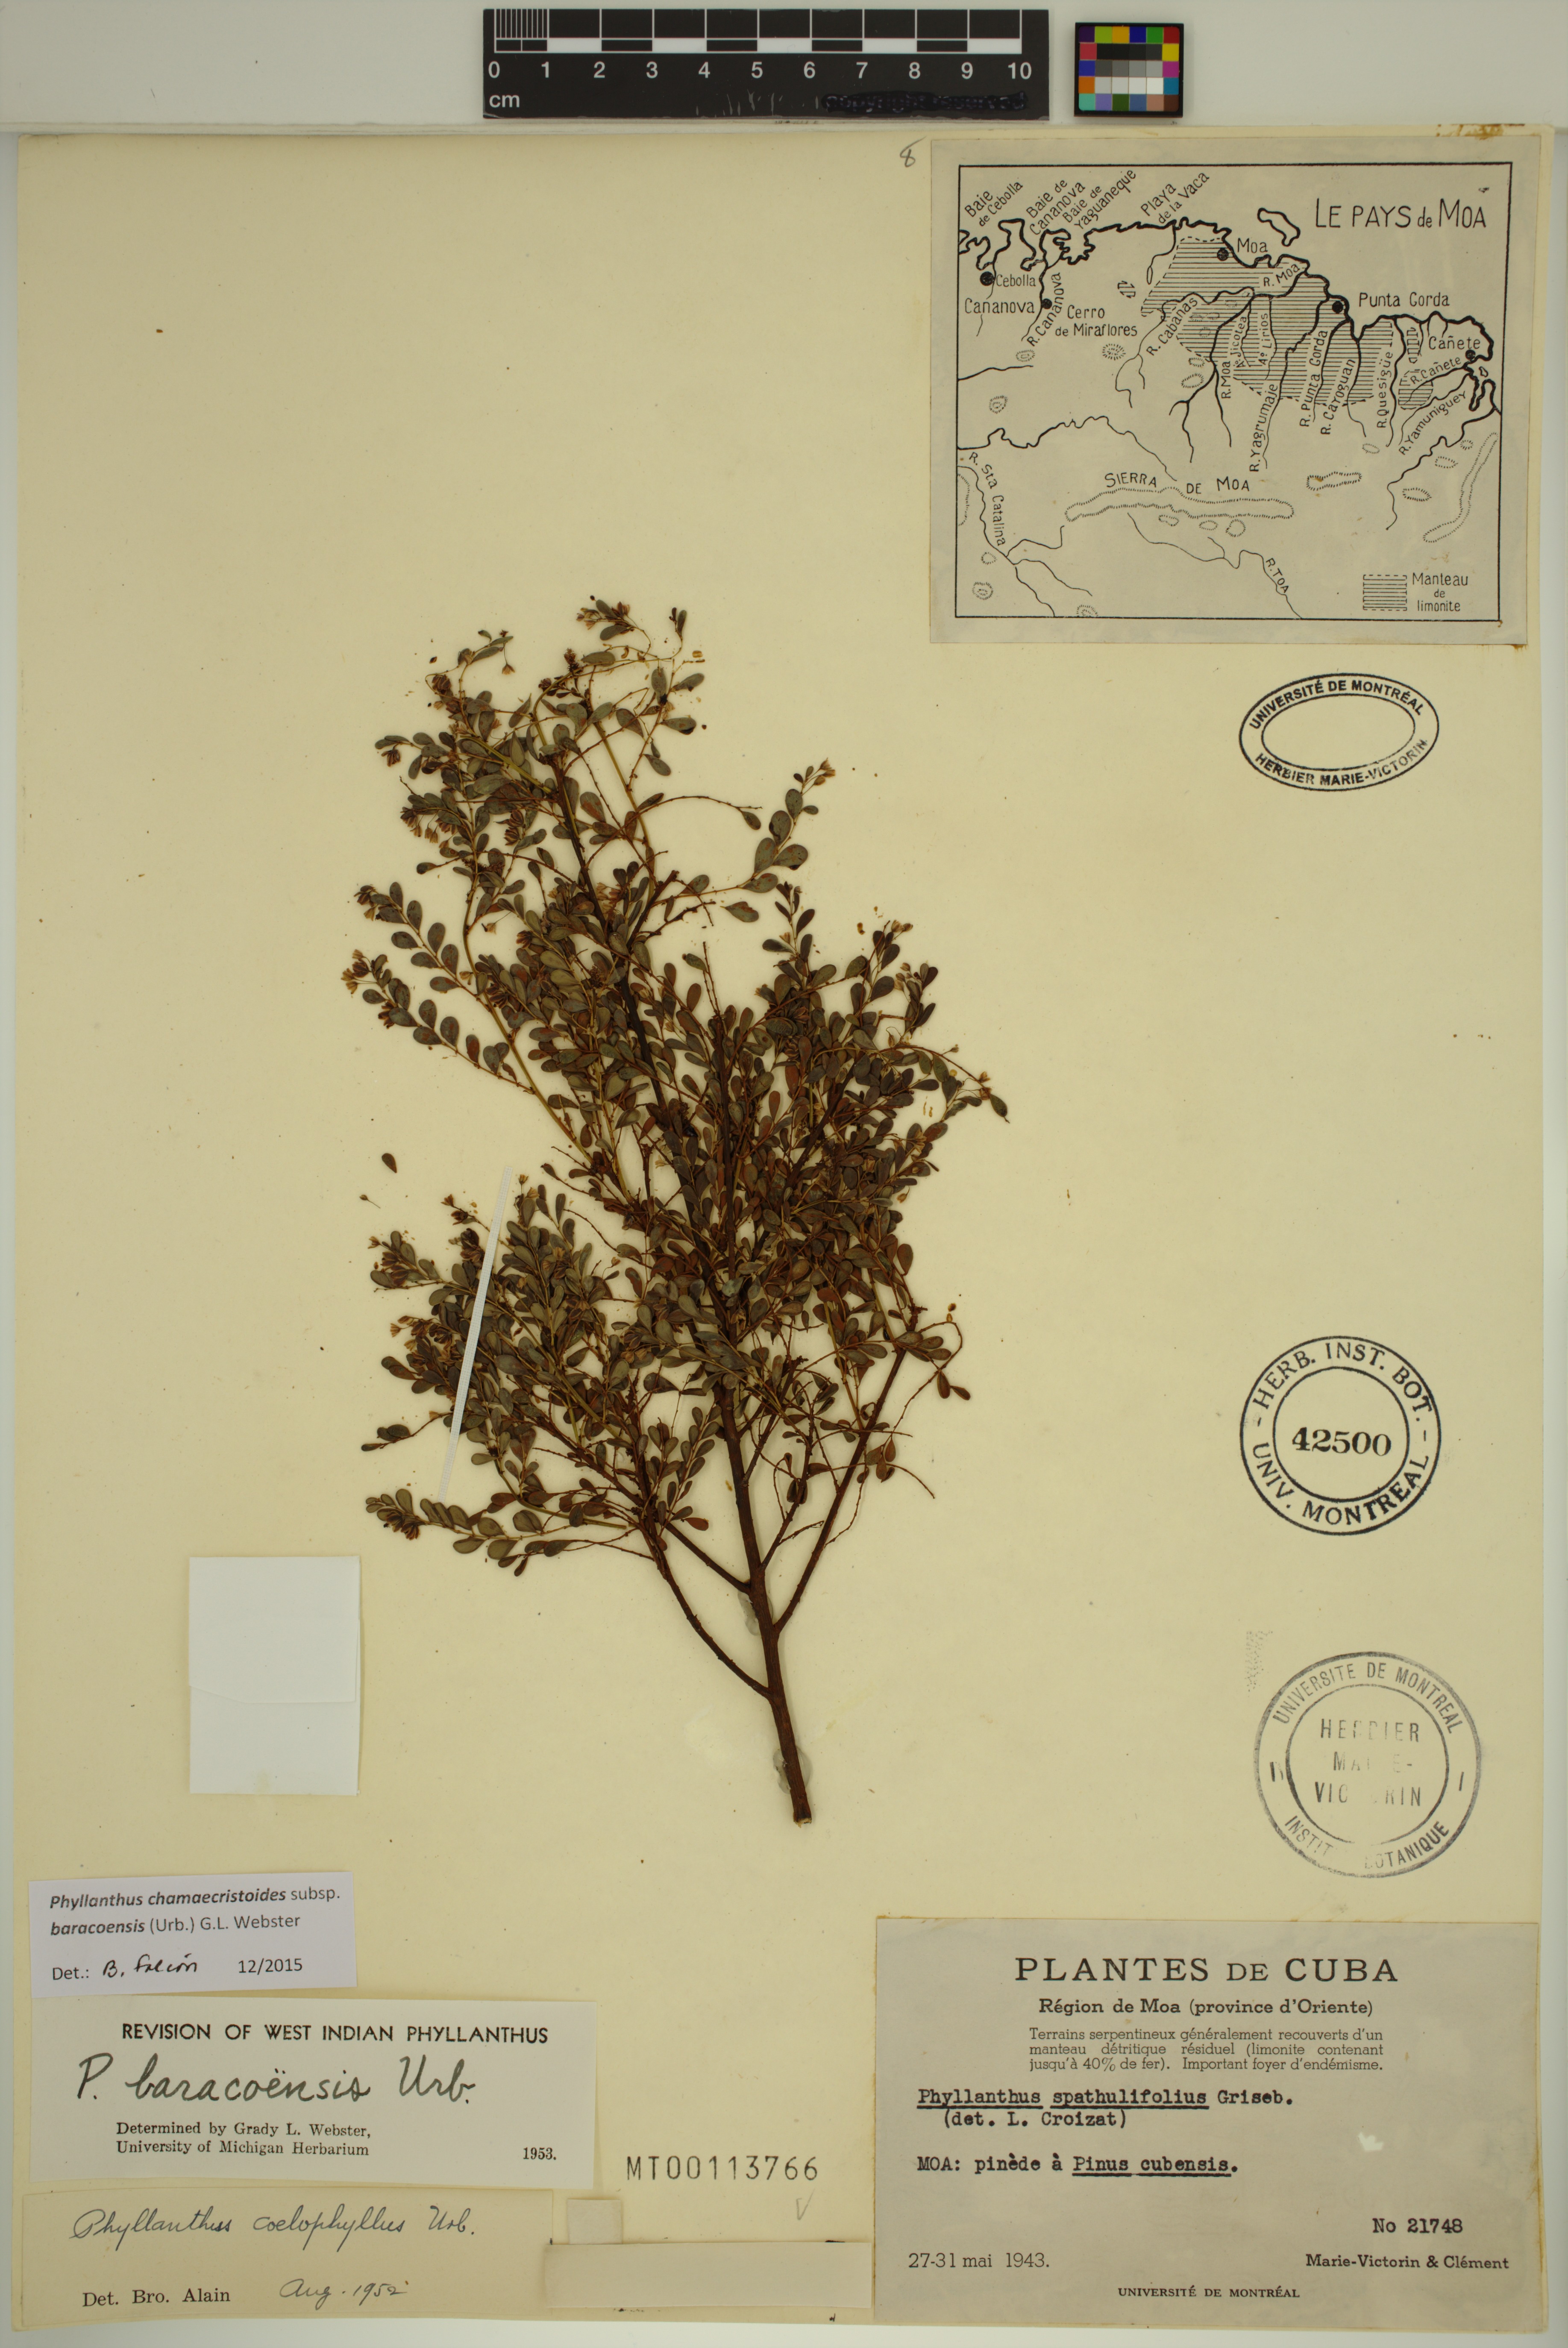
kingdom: Plantae
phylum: Tracheophyta
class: Magnoliopsida
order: Malpighiales
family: Phyllanthaceae
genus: Phyllanthus
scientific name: Phyllanthus chamaecristoides
